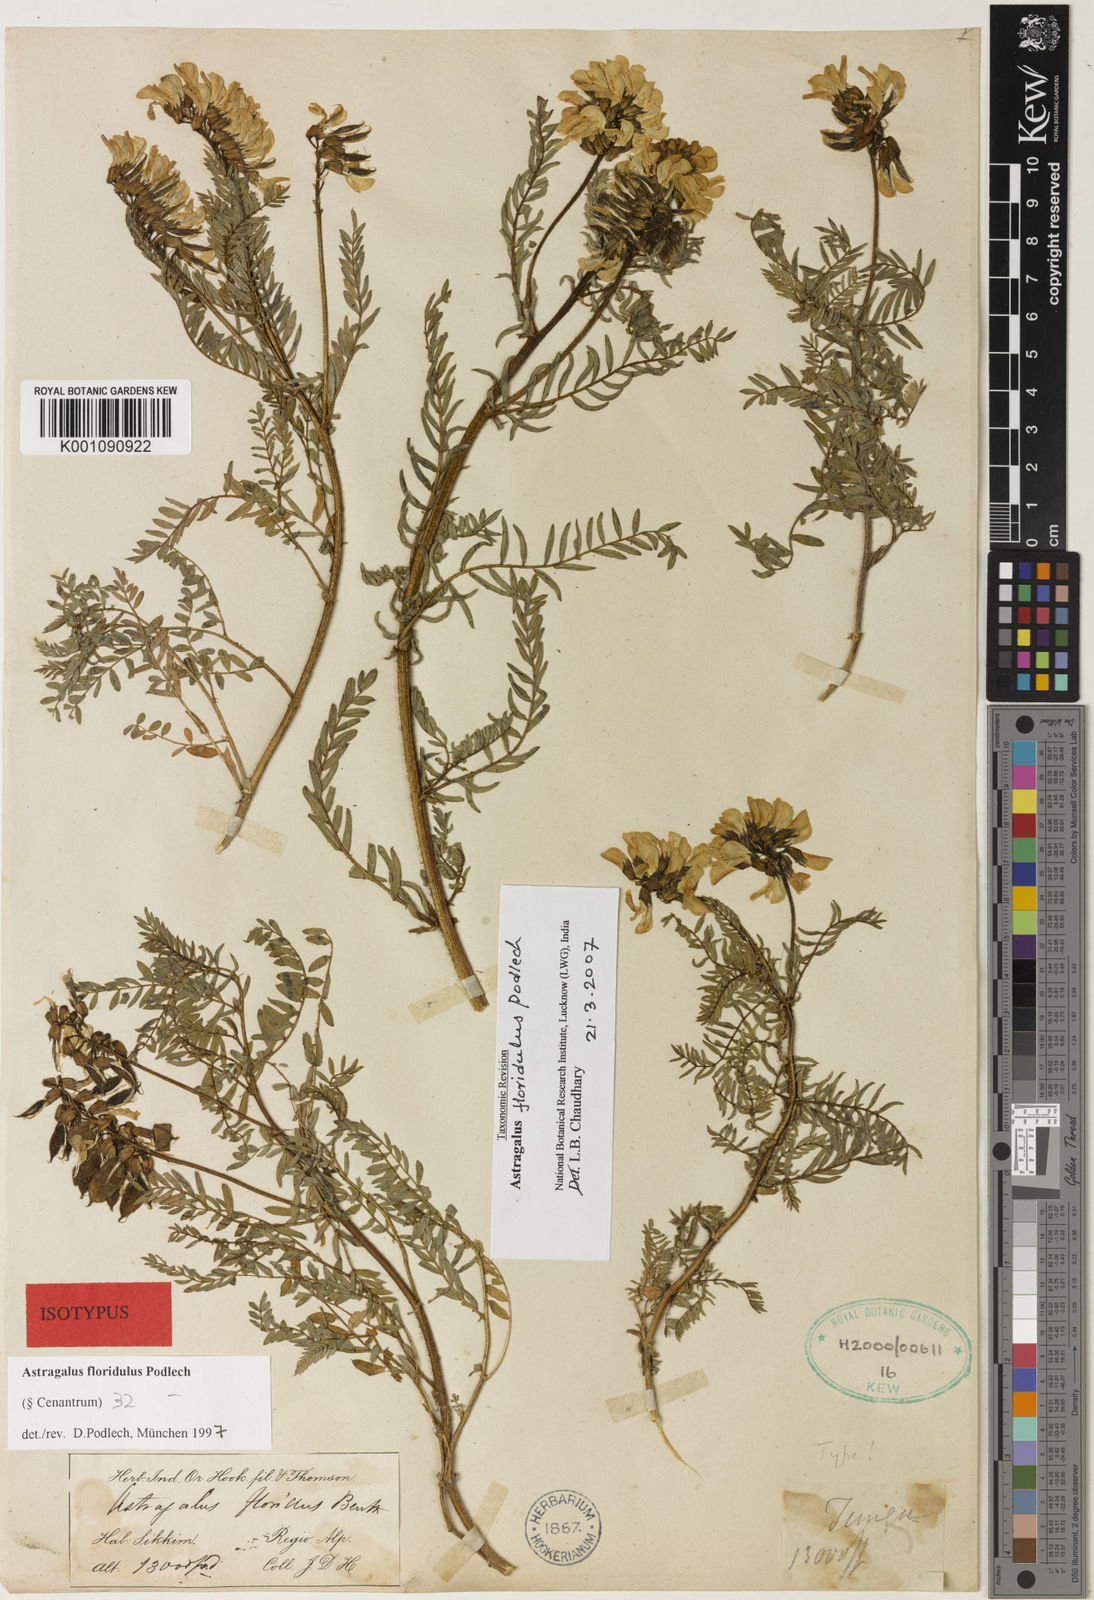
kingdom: Plantae
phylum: Tracheophyta
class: Magnoliopsida
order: Fabales
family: Fabaceae
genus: Astragalus
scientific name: Astragalus
